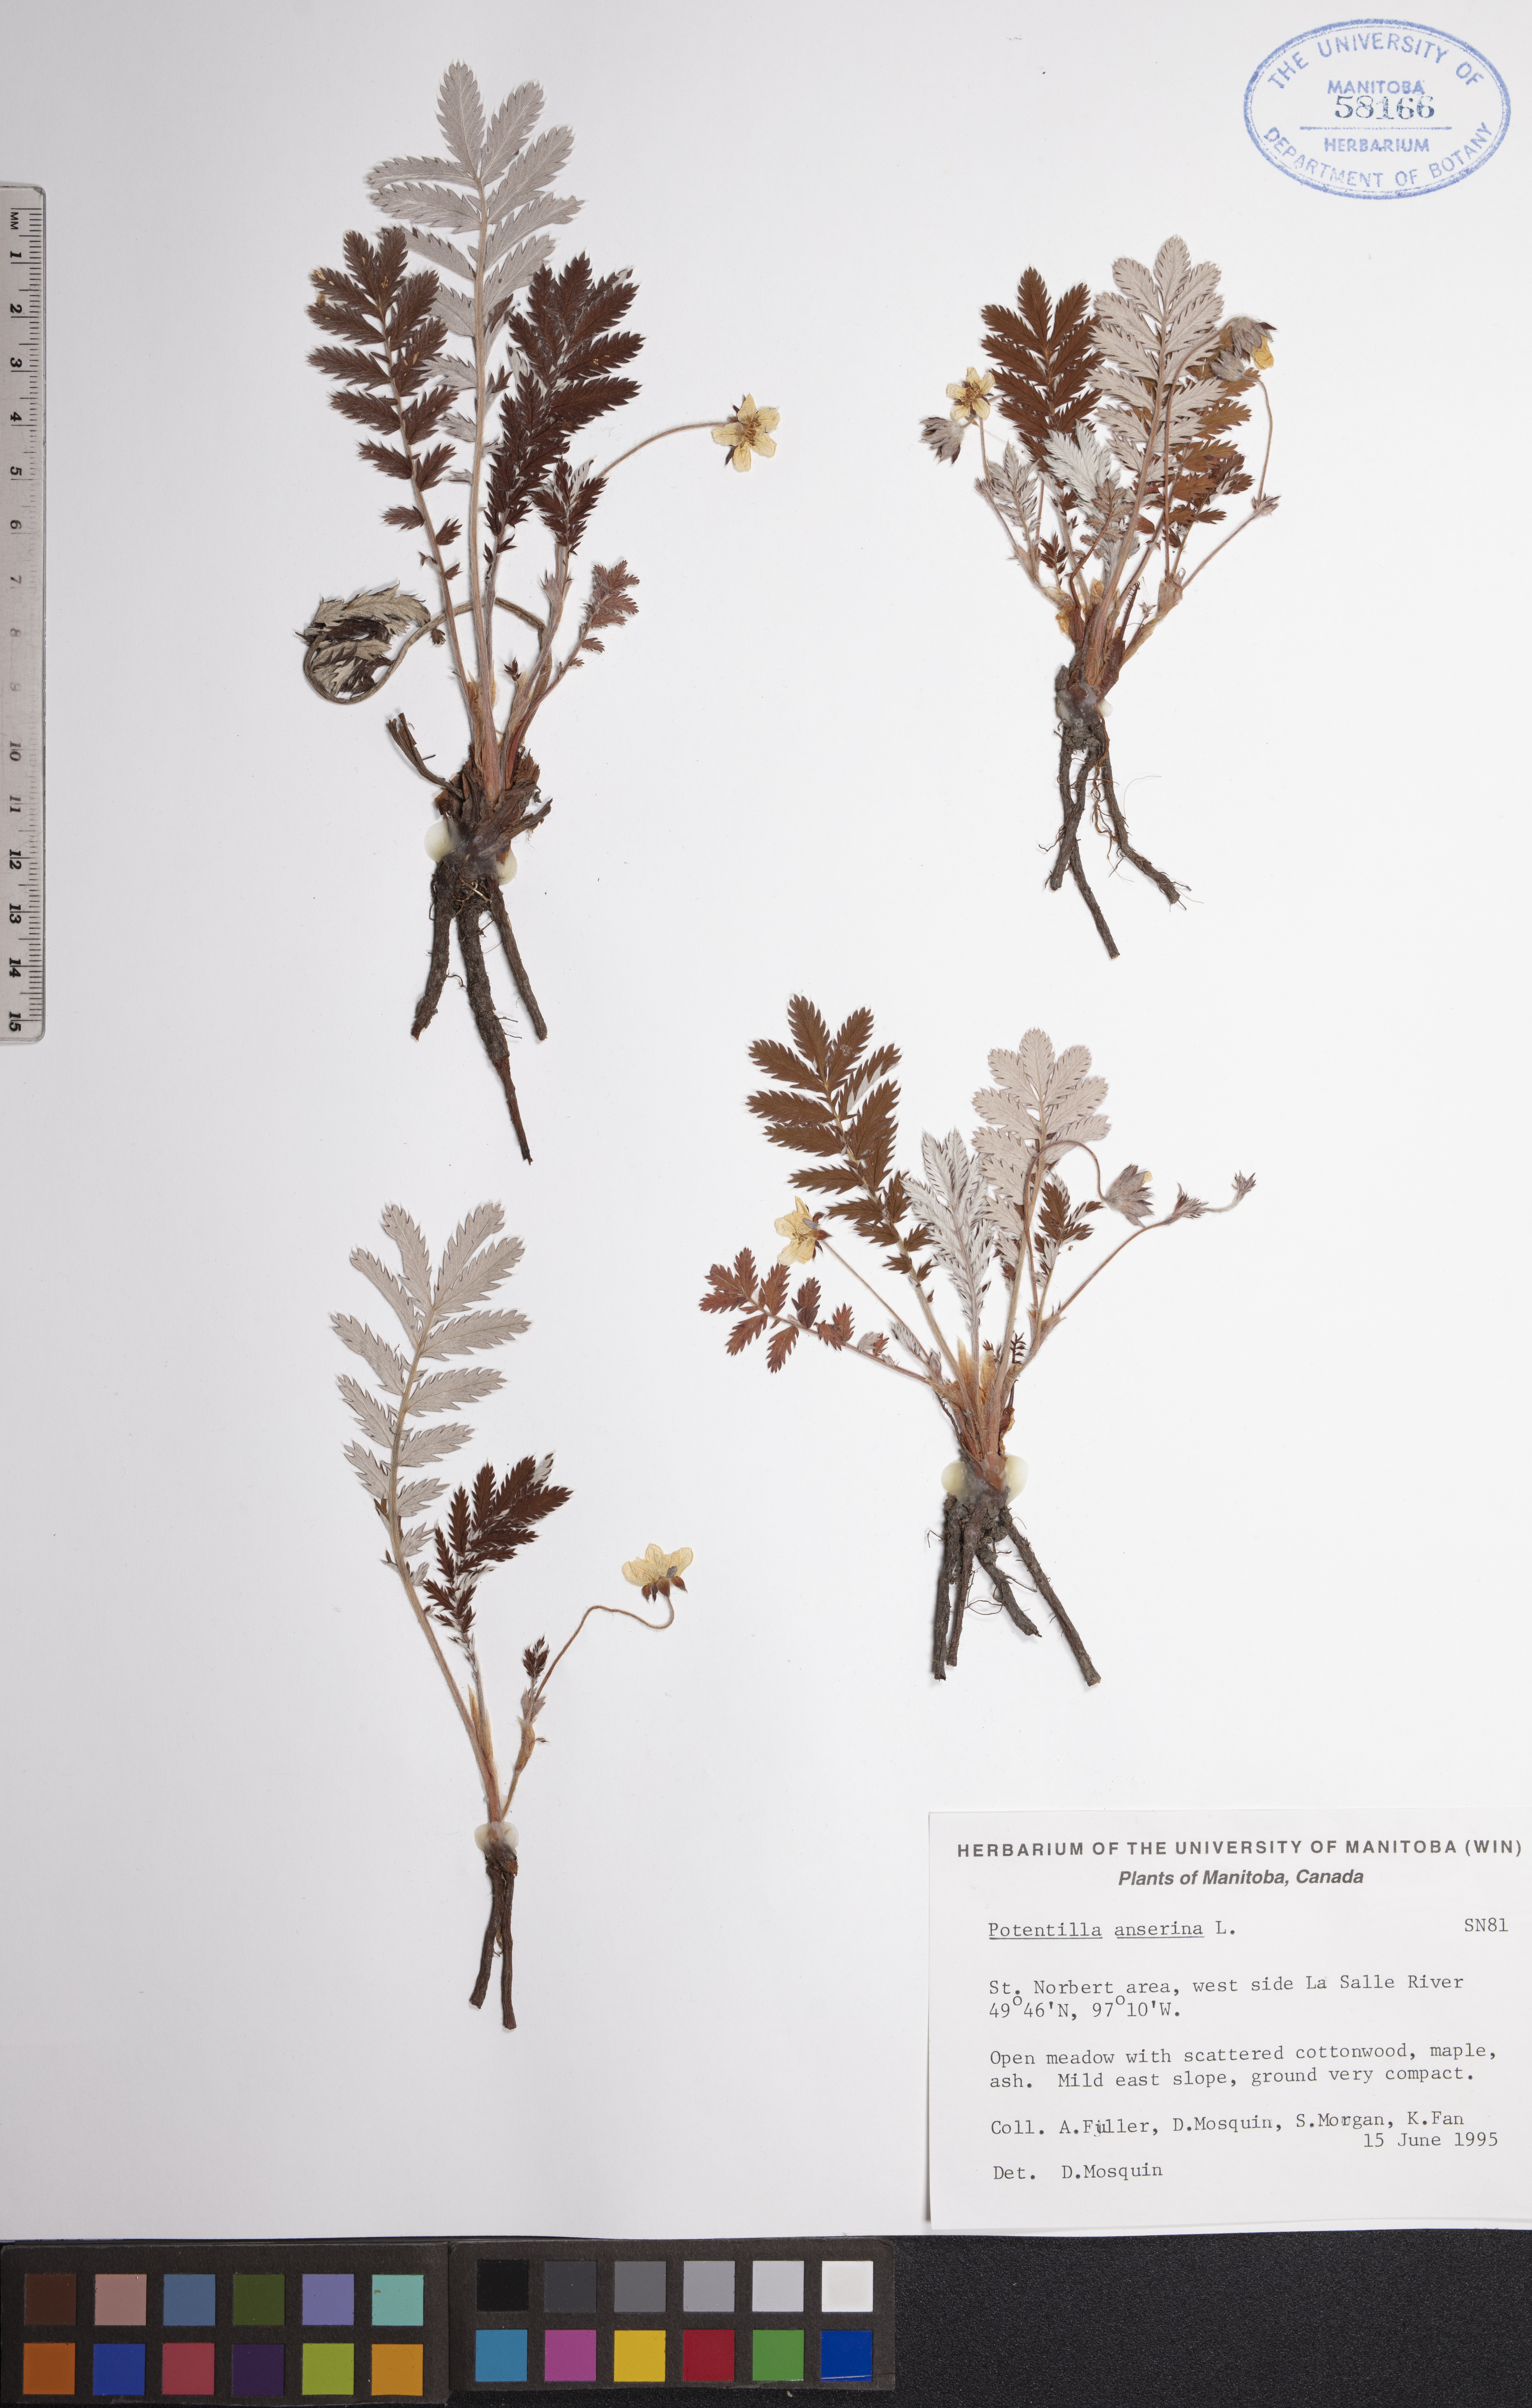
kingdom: Plantae
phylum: Tracheophyta
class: Magnoliopsida
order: Rosales
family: Rosaceae
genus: Argentina
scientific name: Argentina anserina
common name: Common silverweed
